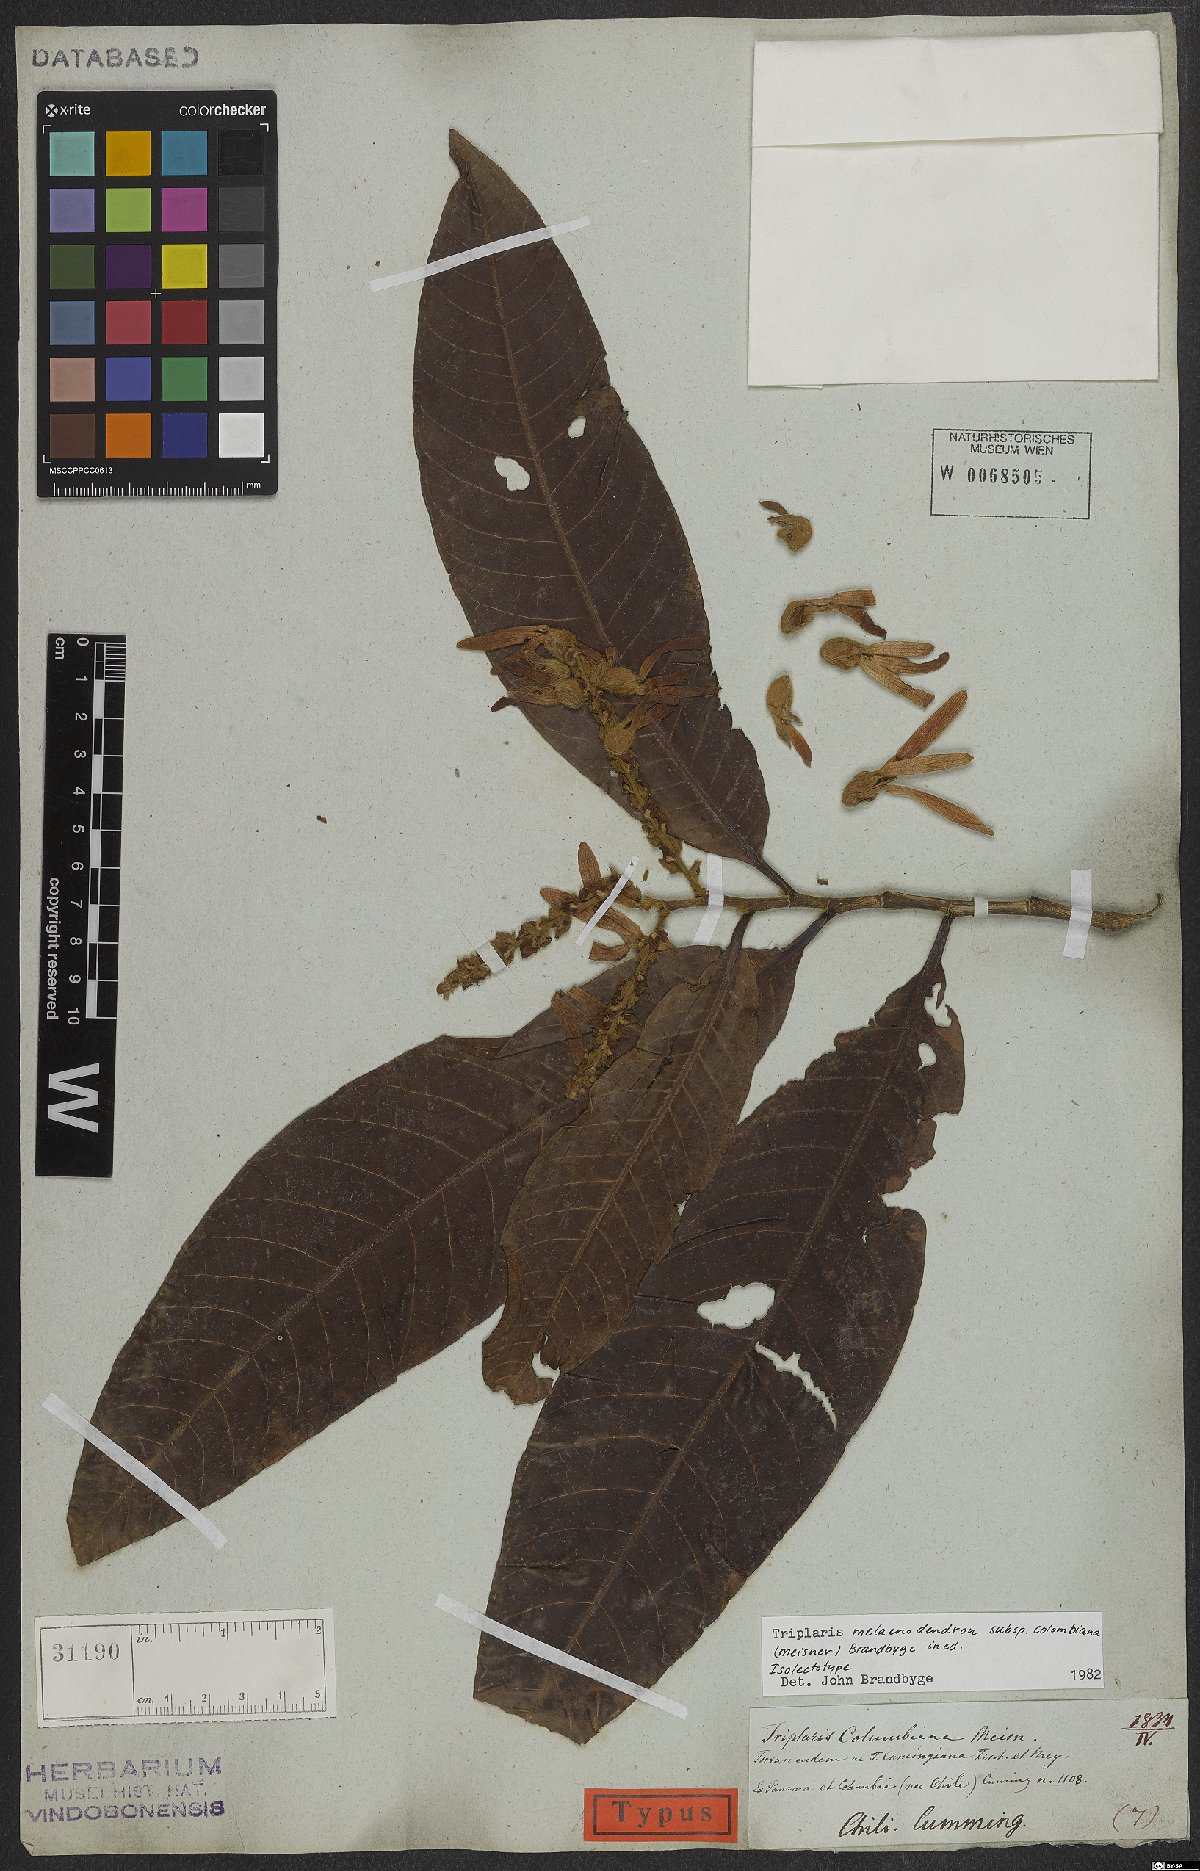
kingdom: Plantae
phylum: Tracheophyta
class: Magnoliopsida
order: Caryophyllales
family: Polygonaceae
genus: Triplaris
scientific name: Triplaris melaenodendron
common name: Long john
